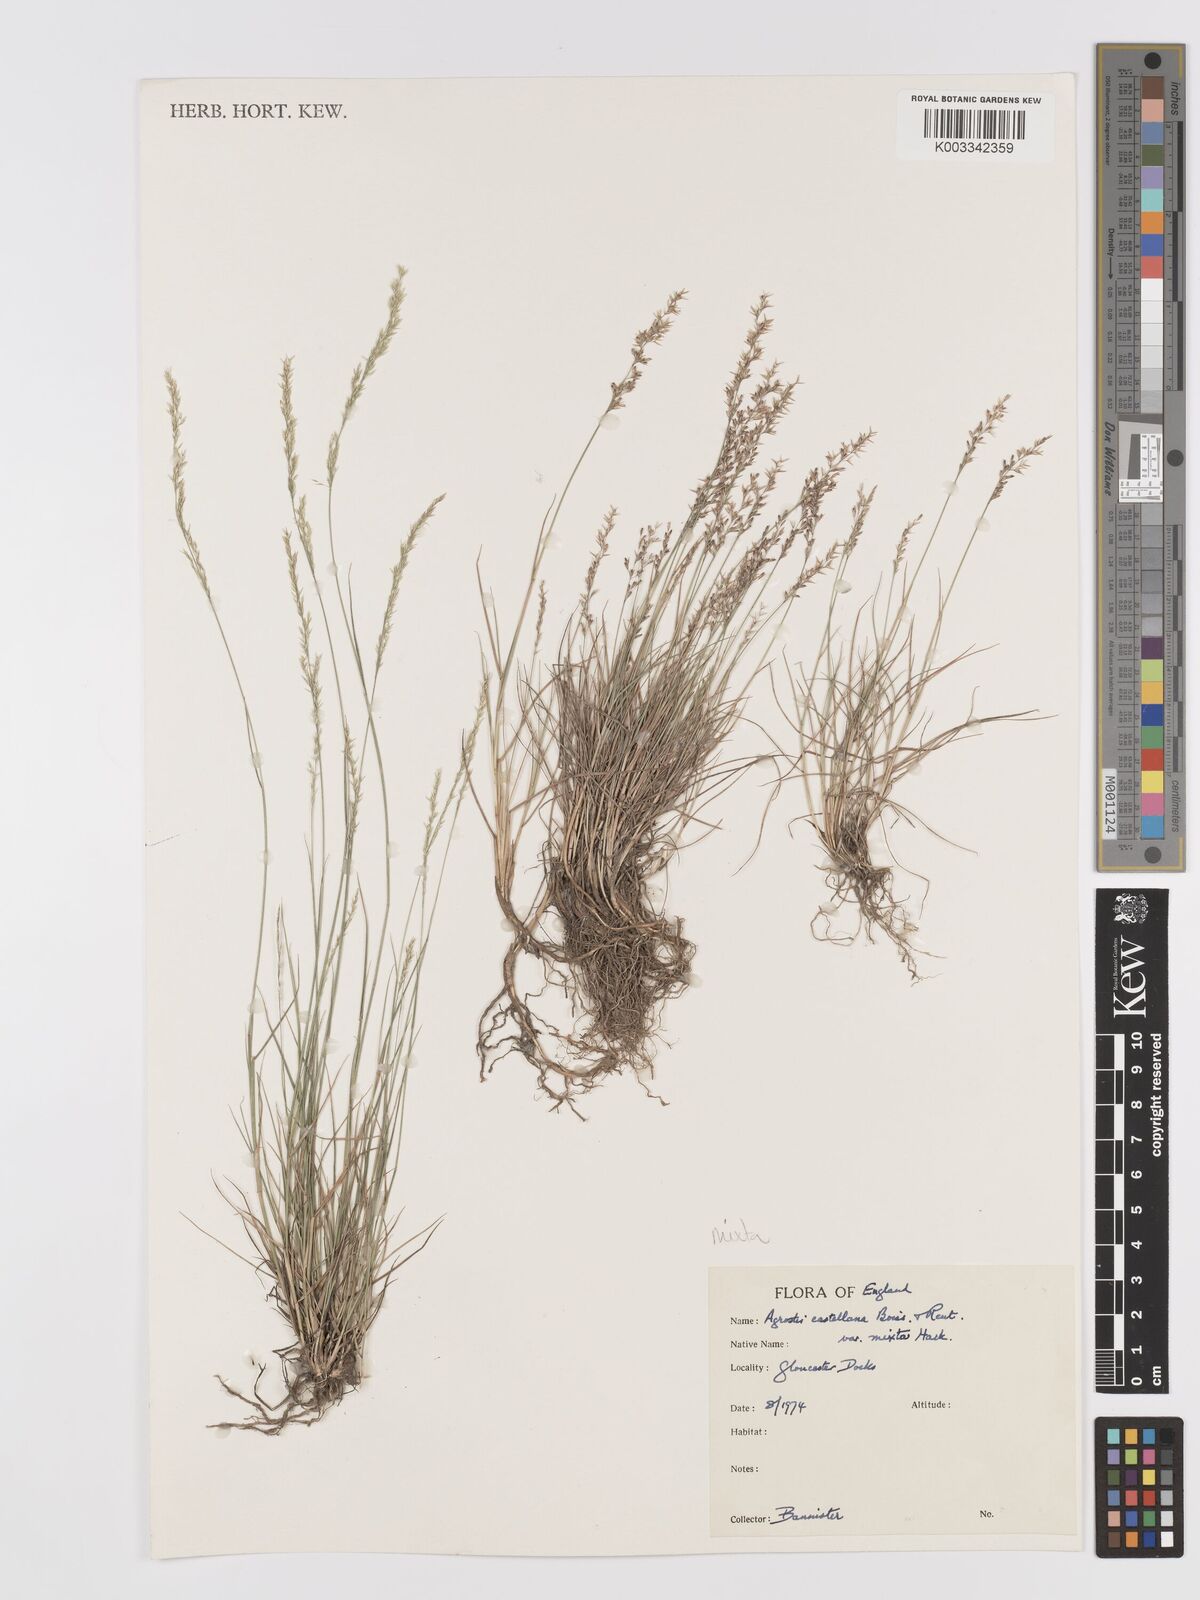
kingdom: Plantae
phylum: Tracheophyta
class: Liliopsida
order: Poales
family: Poaceae
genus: Agrostis
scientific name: Agrostis castellana
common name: Highland bent
